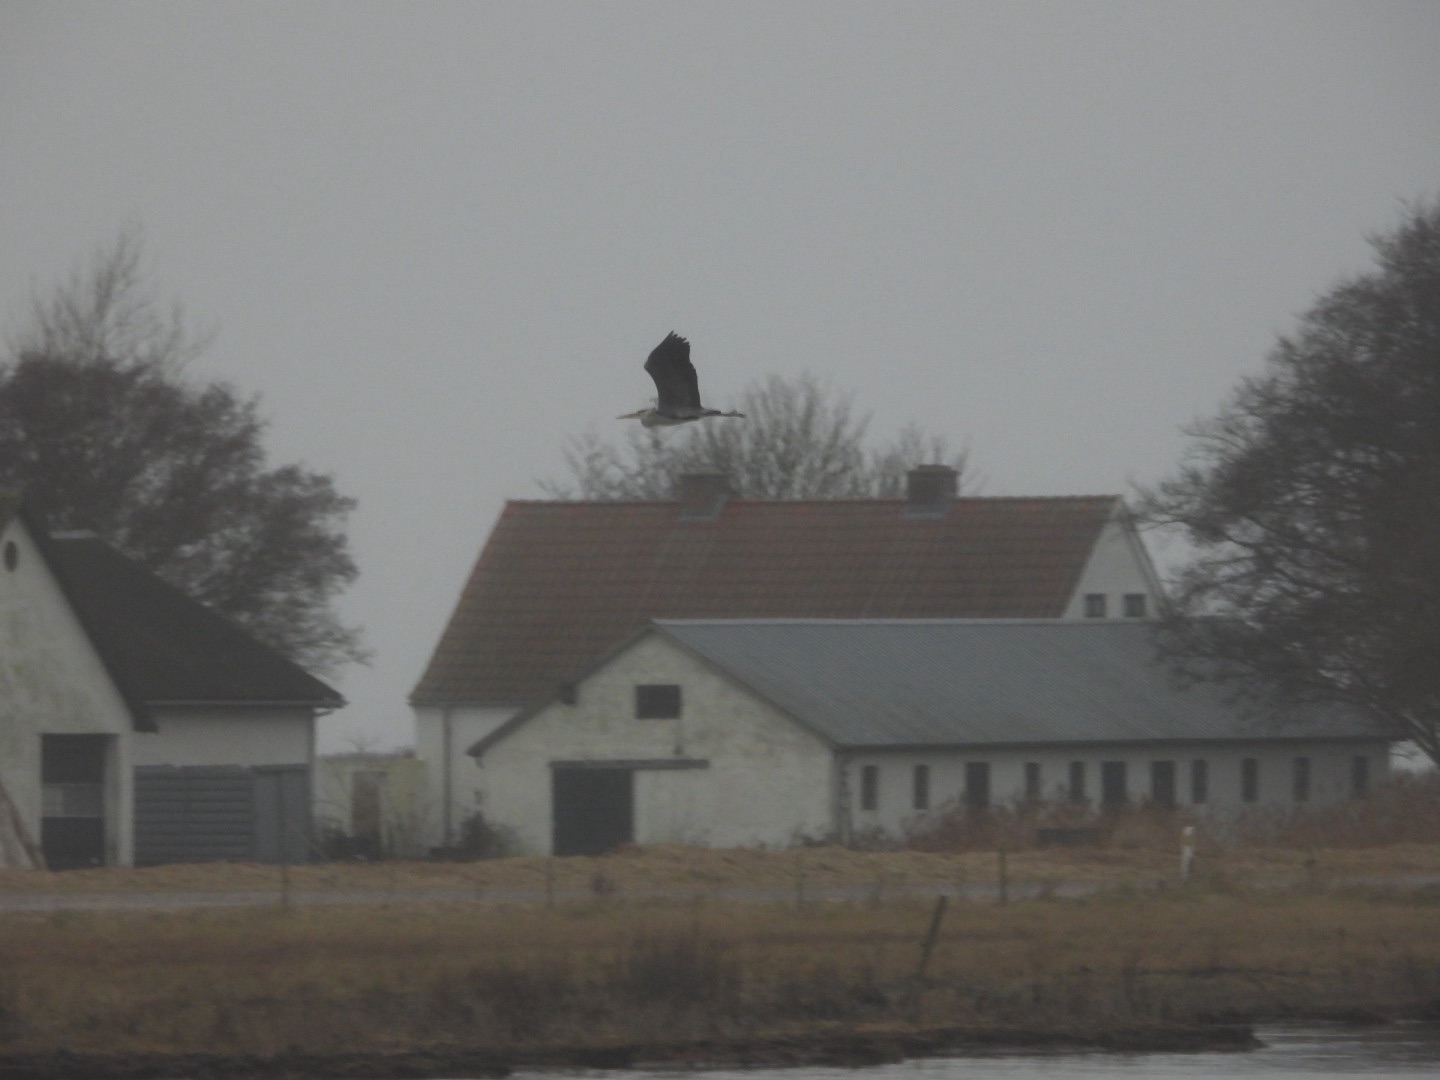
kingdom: Animalia
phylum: Chordata
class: Aves
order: Pelecaniformes
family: Ardeidae
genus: Ardea
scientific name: Ardea cinerea
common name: Fiskehejre
